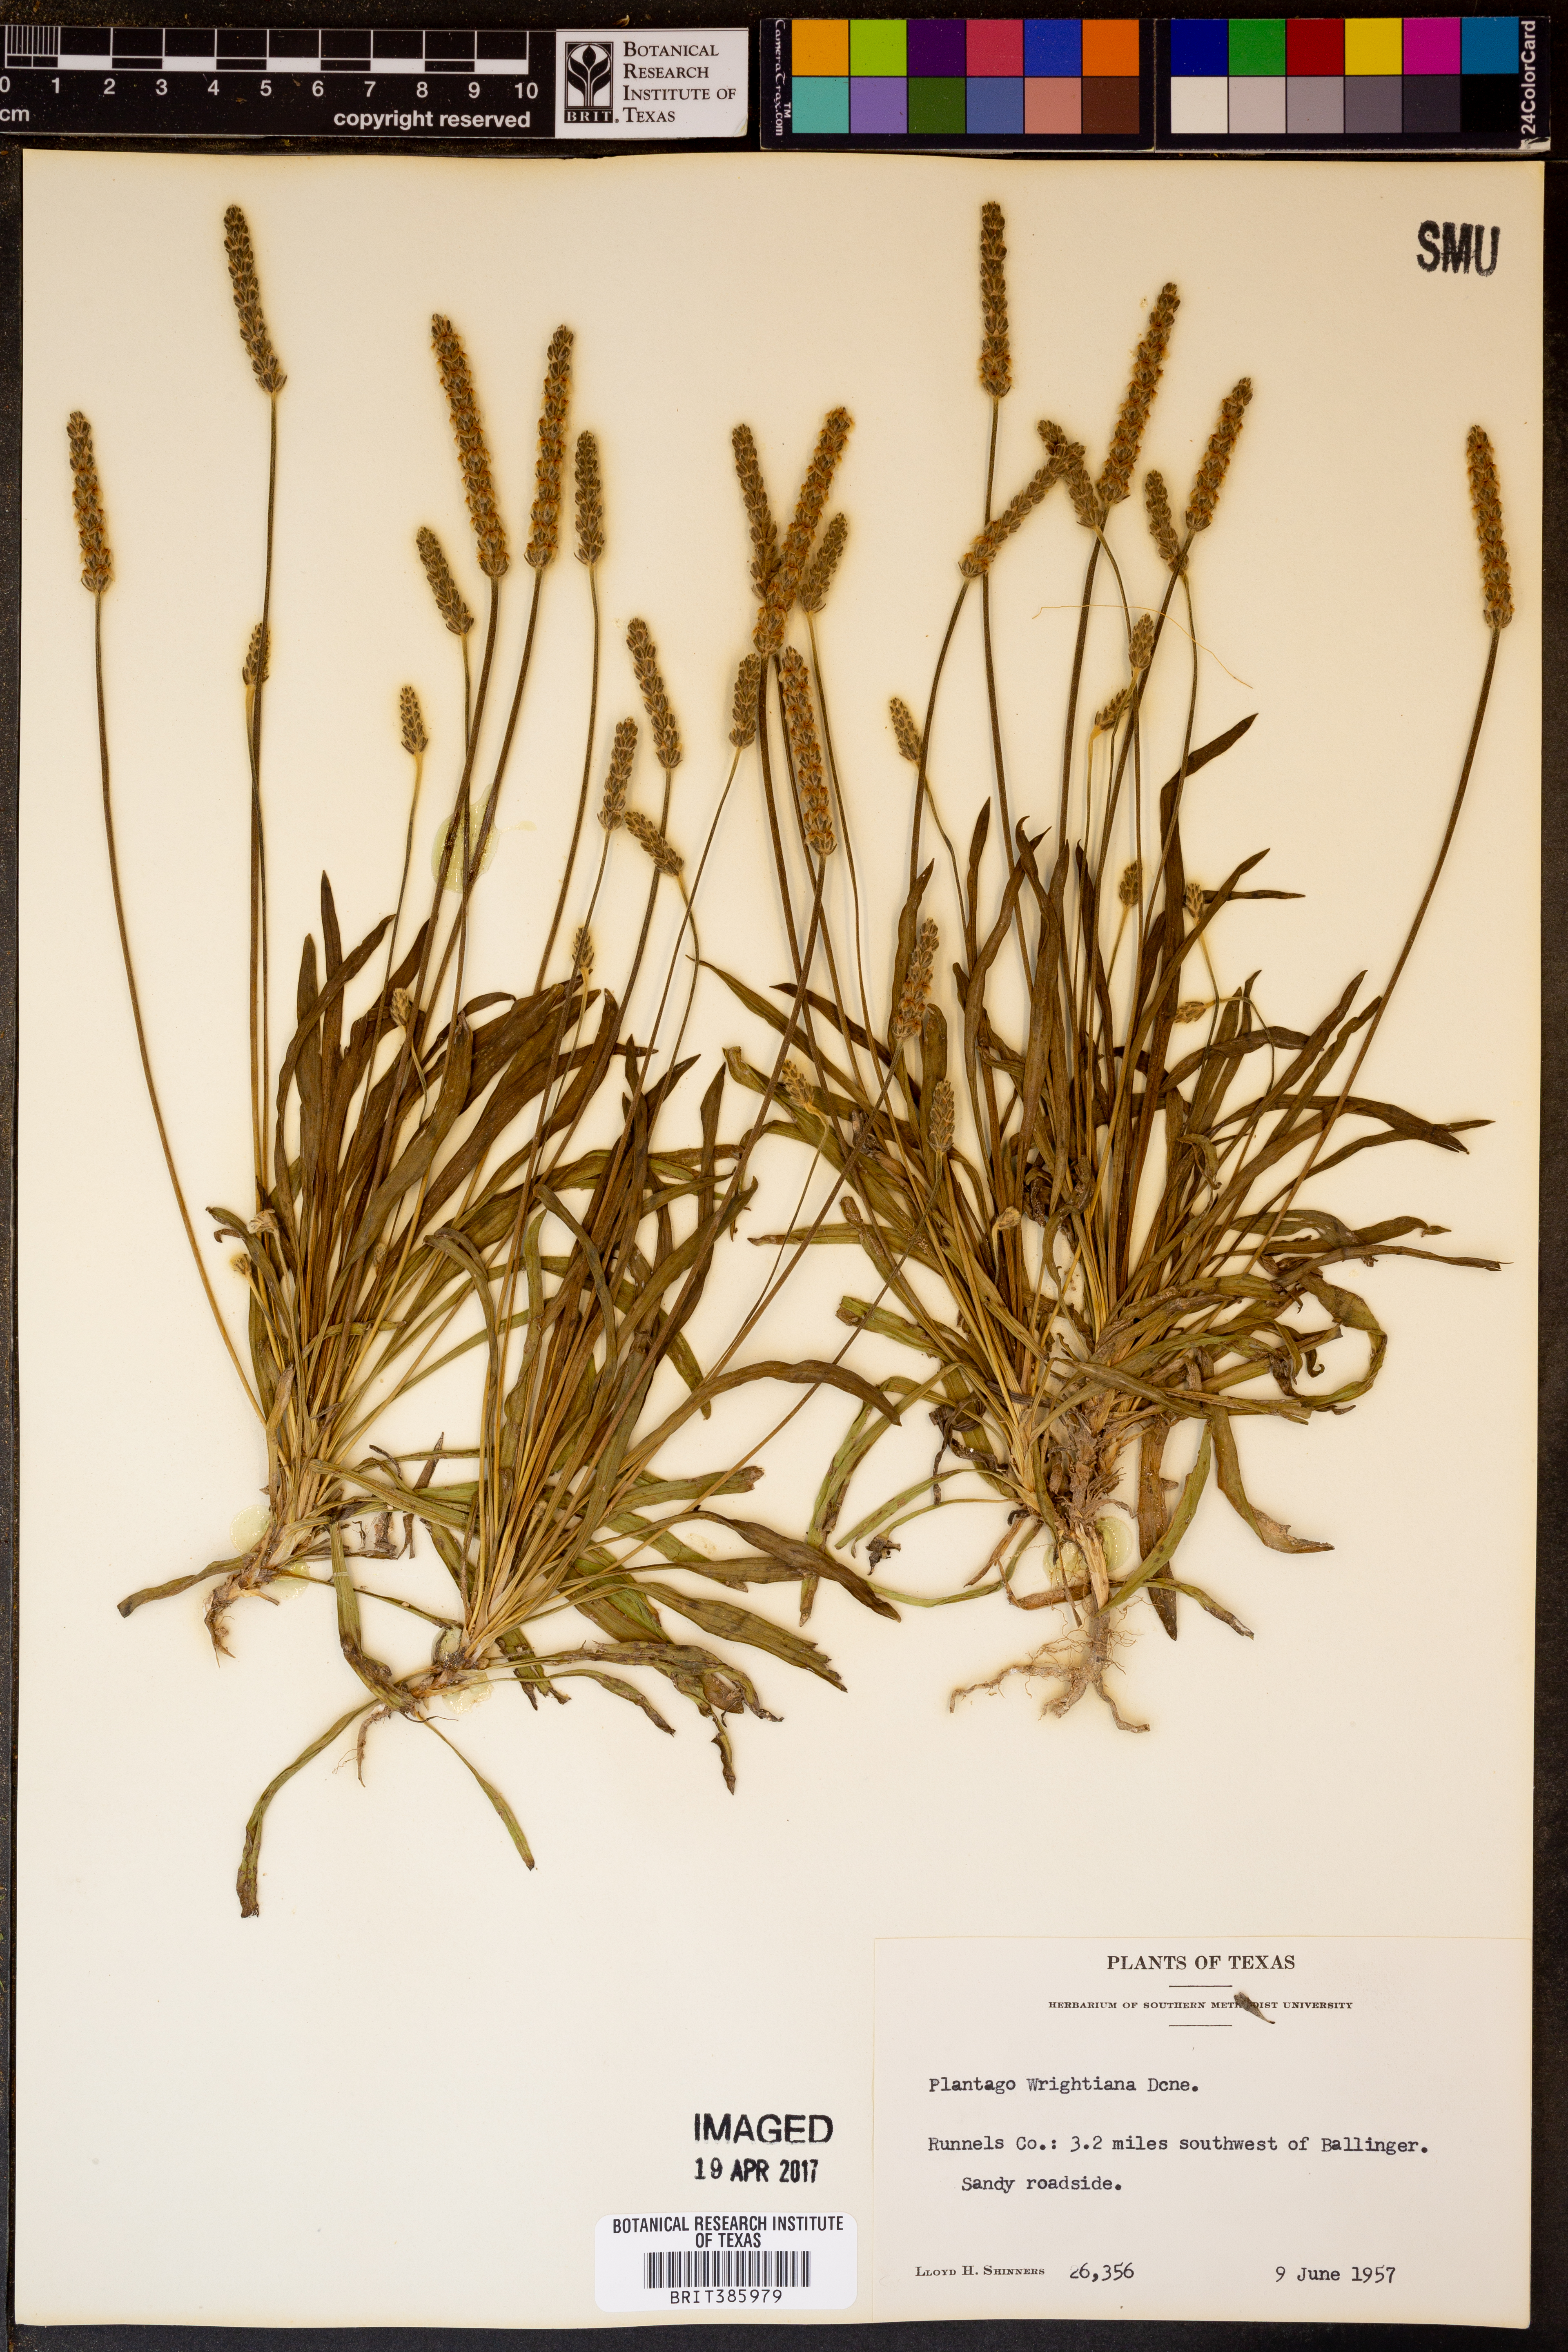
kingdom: Plantae
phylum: Tracheophyta
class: Magnoliopsida
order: Lamiales
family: Plantaginaceae
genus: Plantago
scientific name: Plantago wrightiana
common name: Wright's plantain
